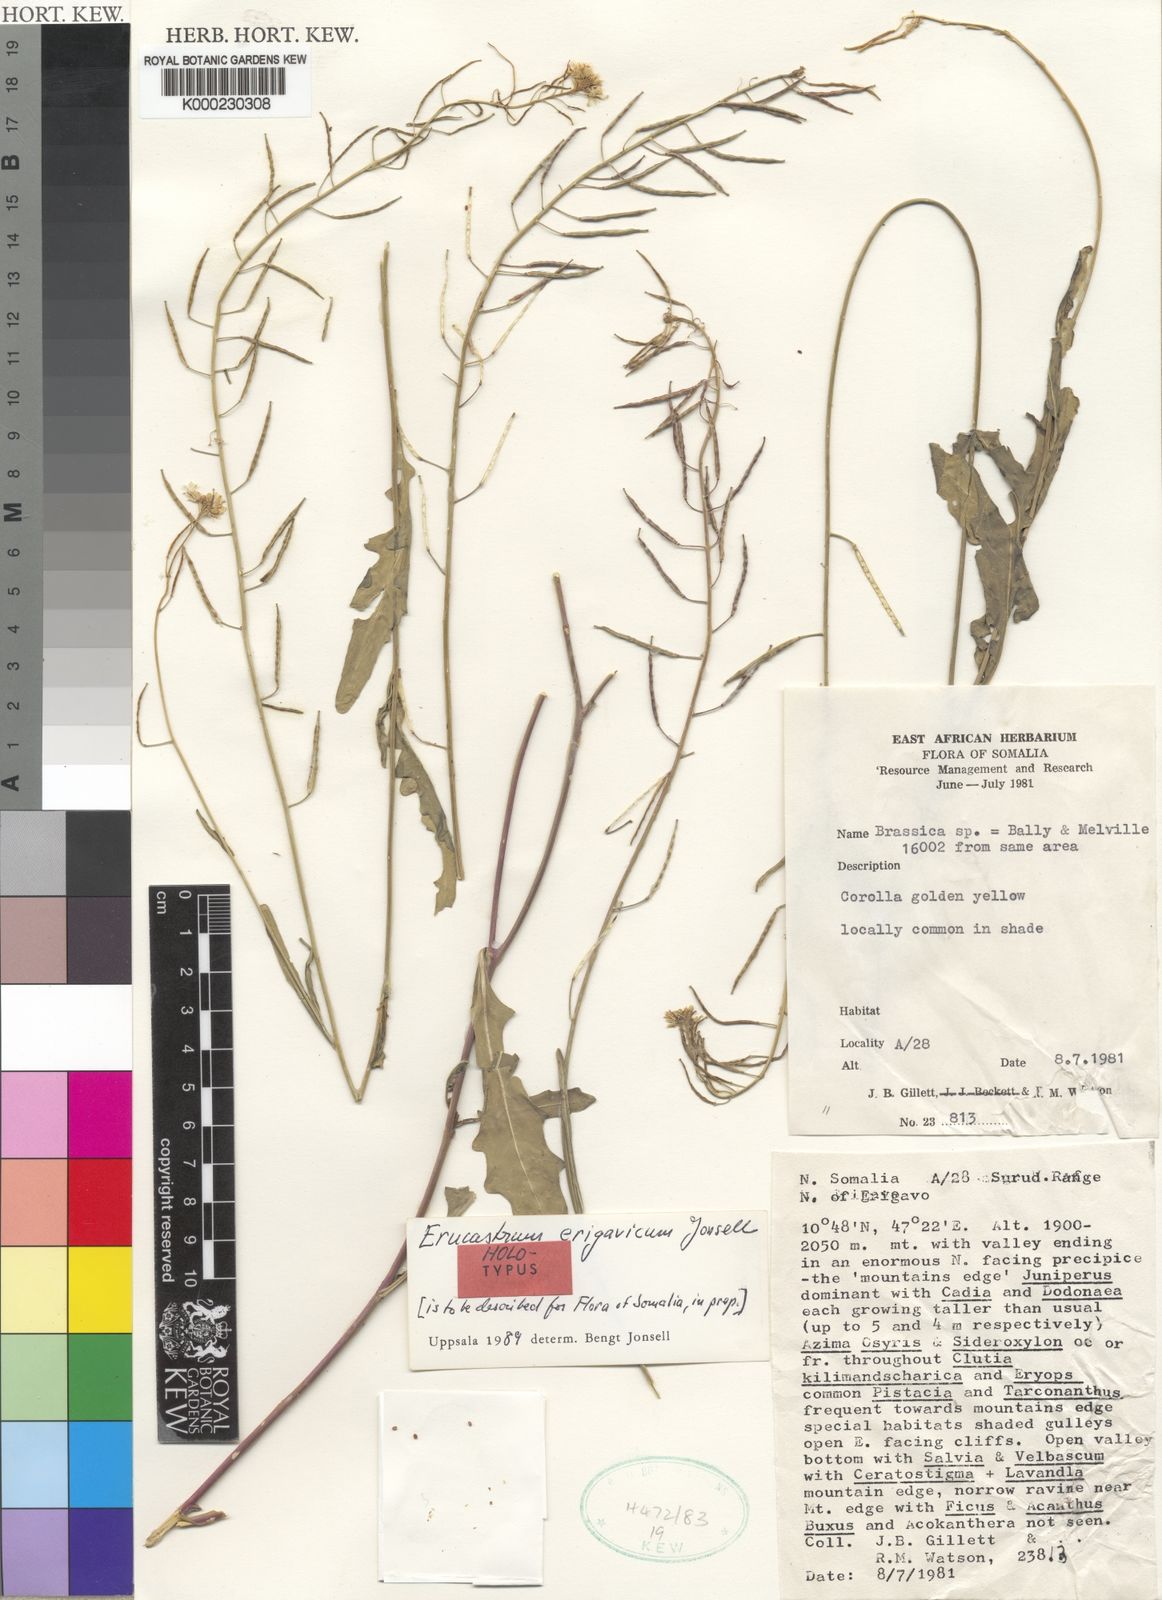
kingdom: Plantae
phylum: Tracheophyta
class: Magnoliopsida
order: Brassicales
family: Brassicaceae
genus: Erucastrum
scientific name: Erucastrum erigavicum
